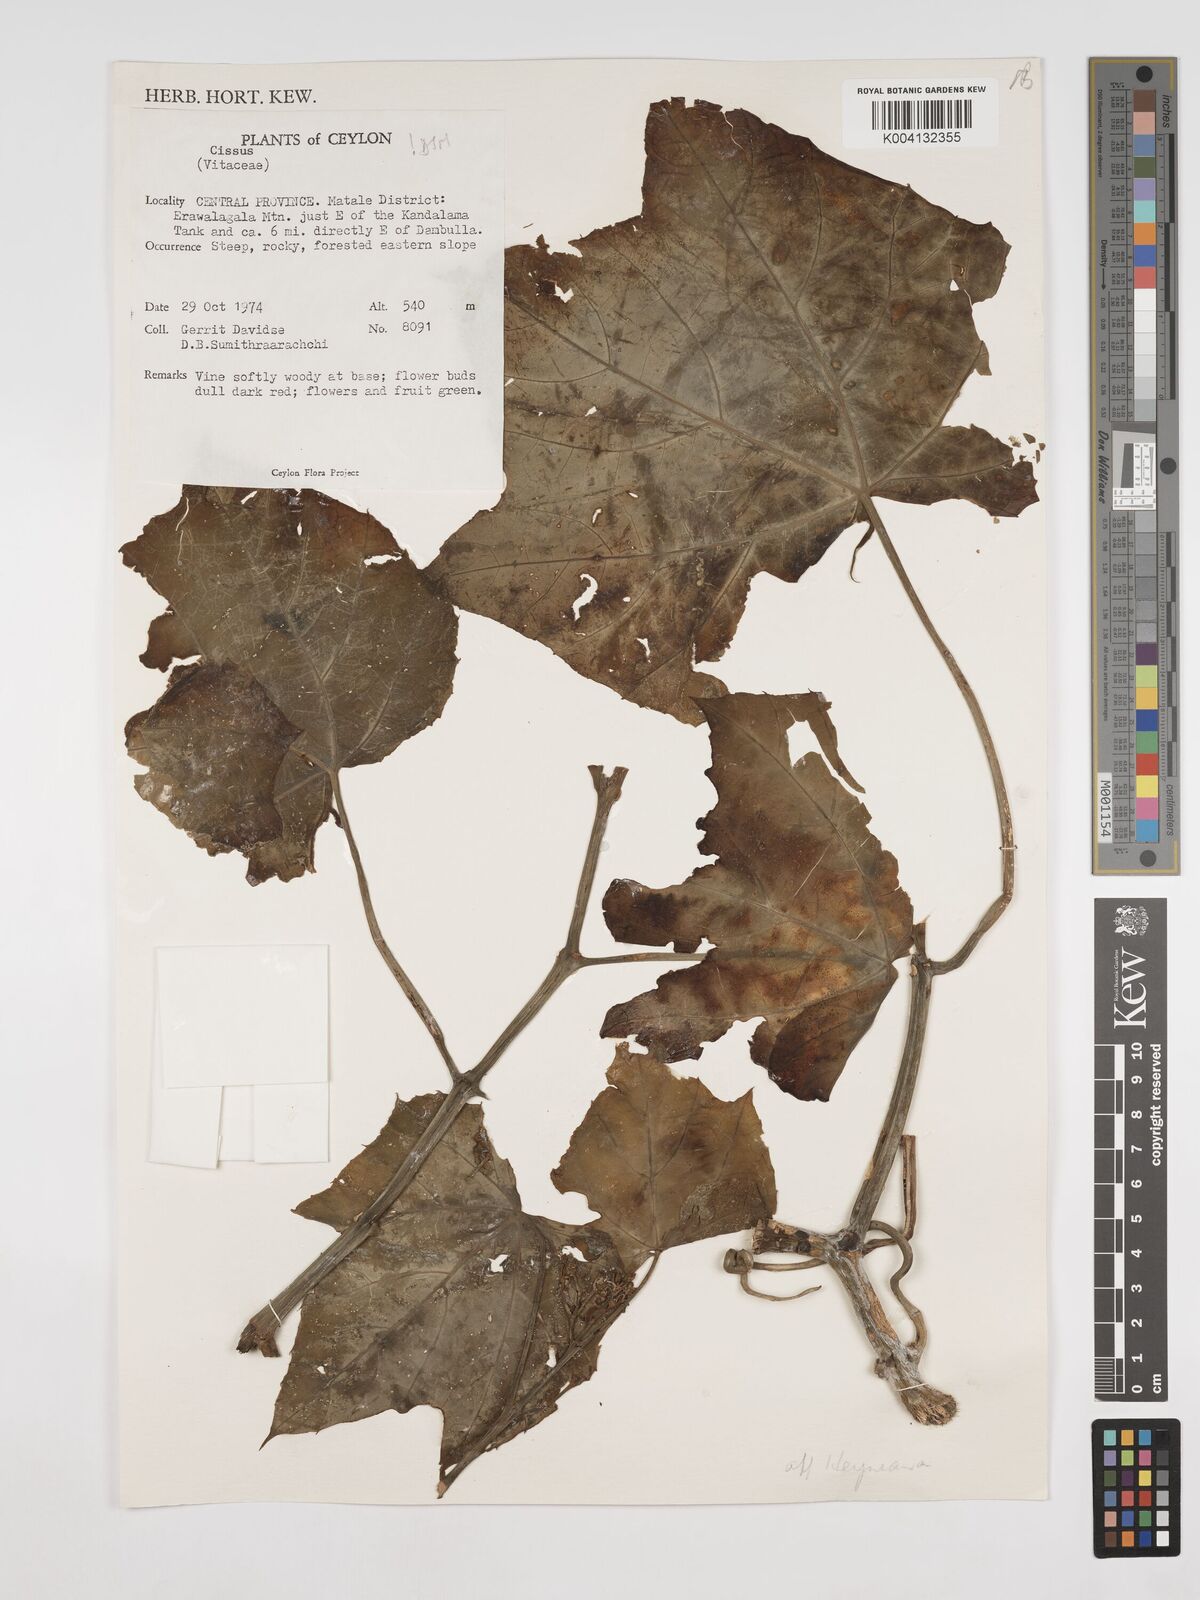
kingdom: Plantae
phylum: Tracheophyta
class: Magnoliopsida
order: Vitales
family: Vitaceae
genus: Cissus
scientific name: Cissus heyneana
